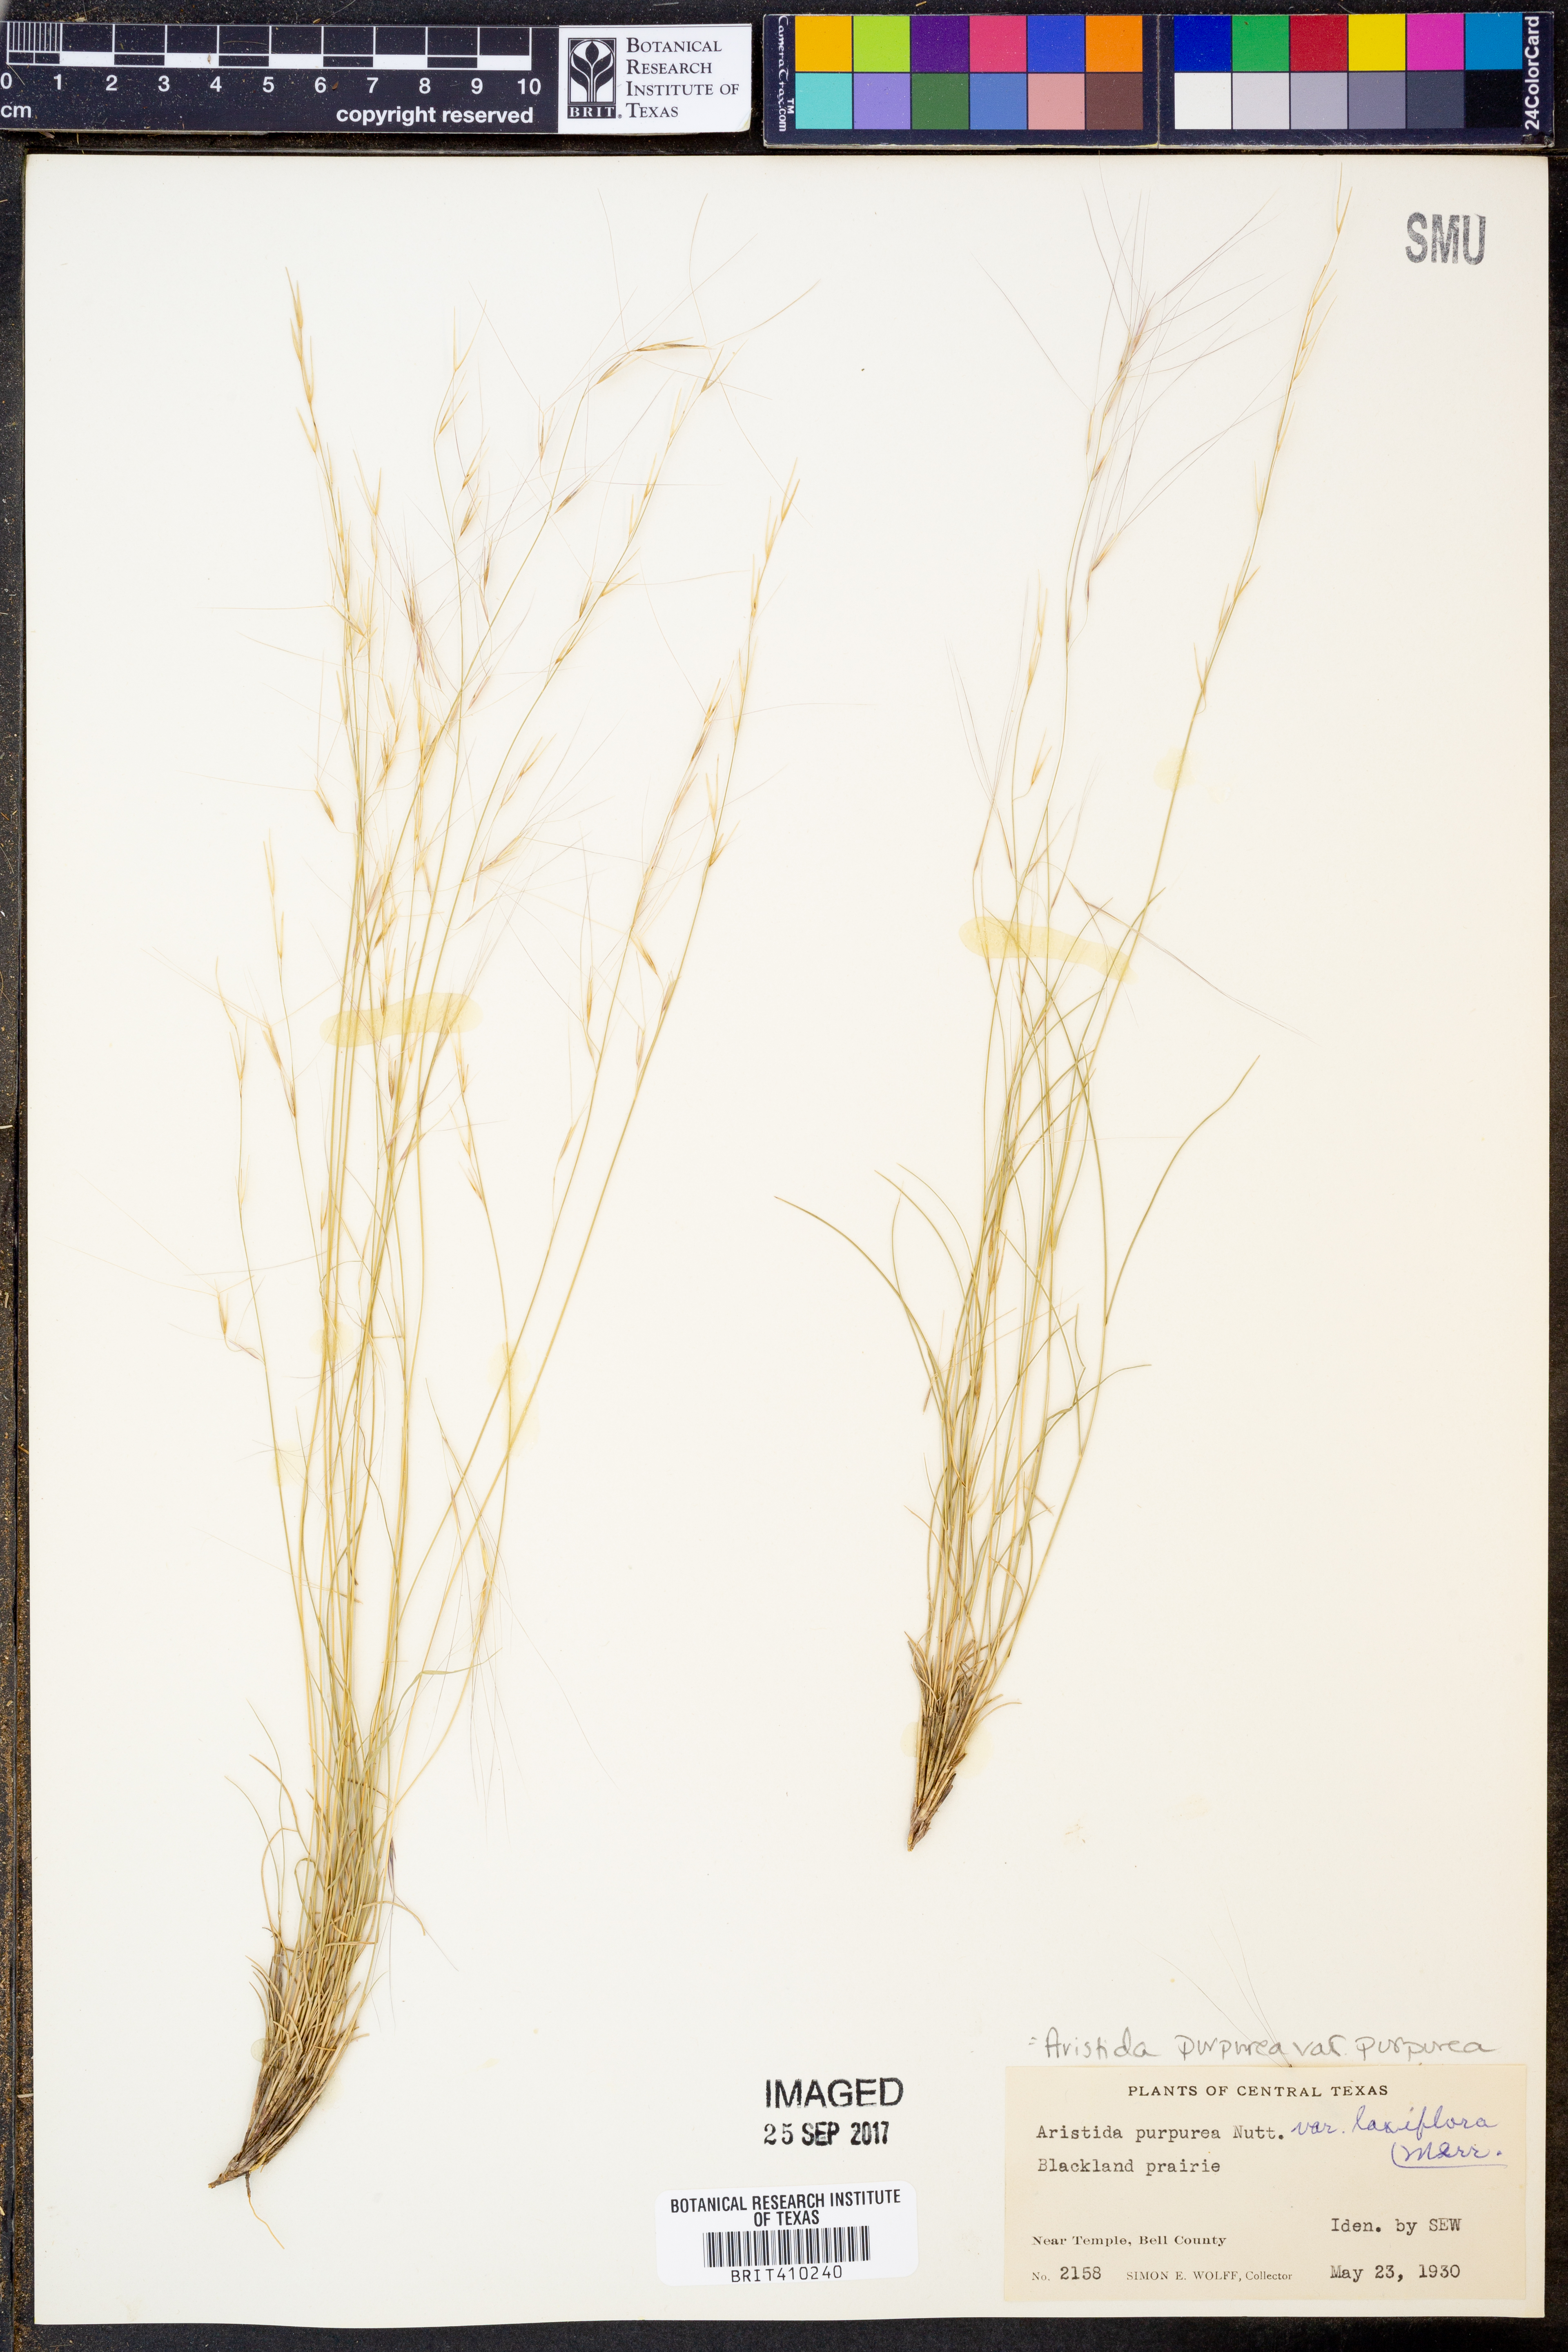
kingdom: Plantae
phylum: Tracheophyta
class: Liliopsida
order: Poales
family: Poaceae
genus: Aristida
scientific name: Aristida purpurea
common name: Purple threeawn
